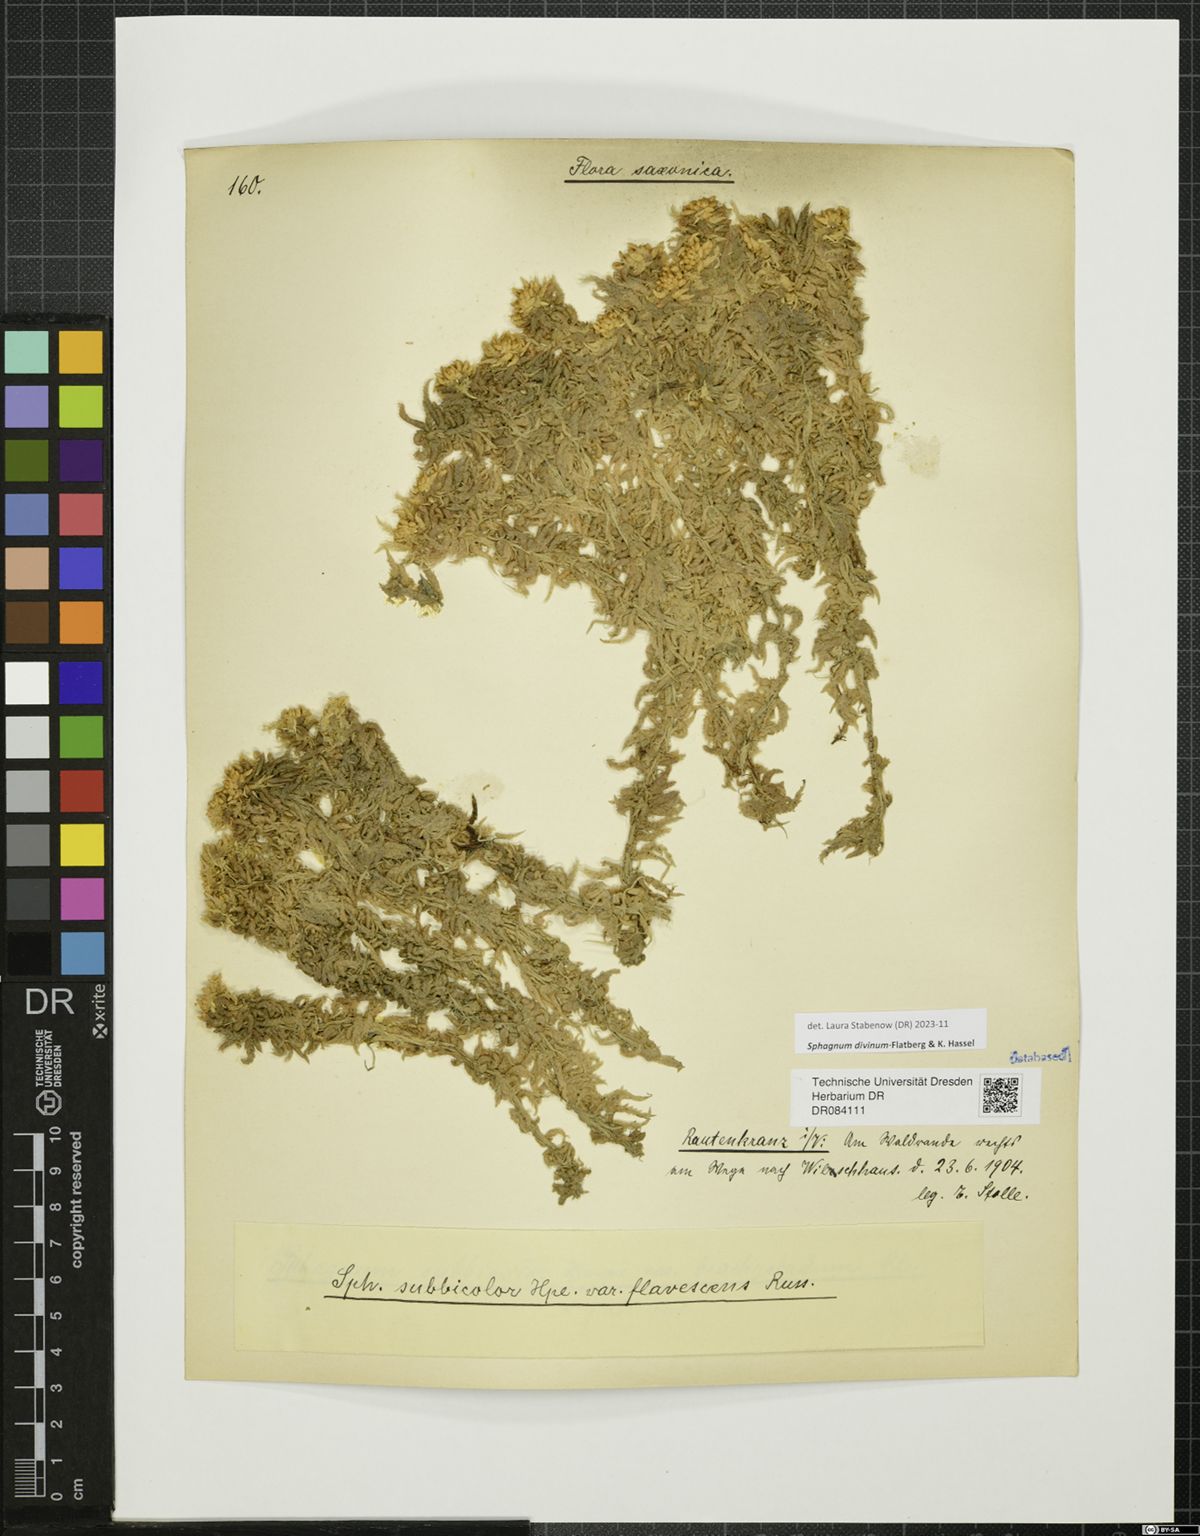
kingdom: Plantae
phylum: Bryophyta
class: Sphagnopsida
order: Sphagnales
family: Sphagnaceae
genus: Sphagnum
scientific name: Sphagnum divinum
